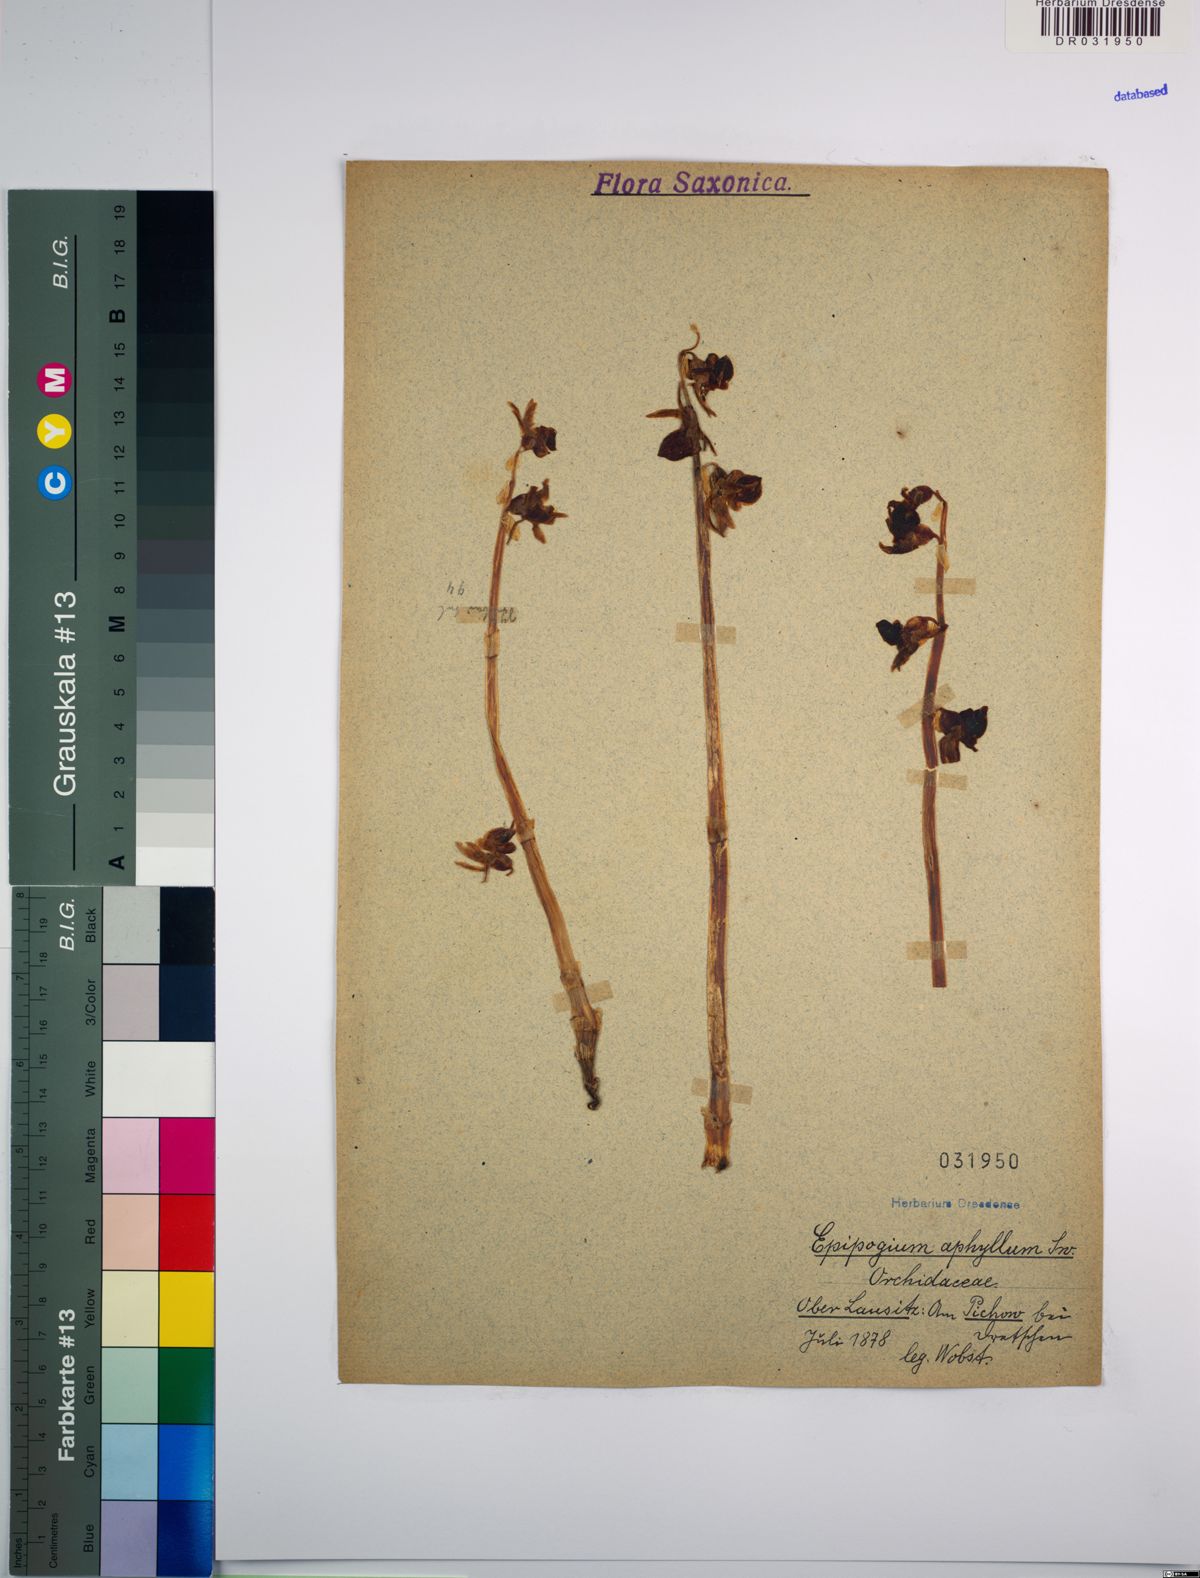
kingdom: Plantae
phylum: Tracheophyta
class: Liliopsida
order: Asparagales
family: Orchidaceae
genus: Epipogium
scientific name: Epipogium aphyllum
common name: Ghost orchid
